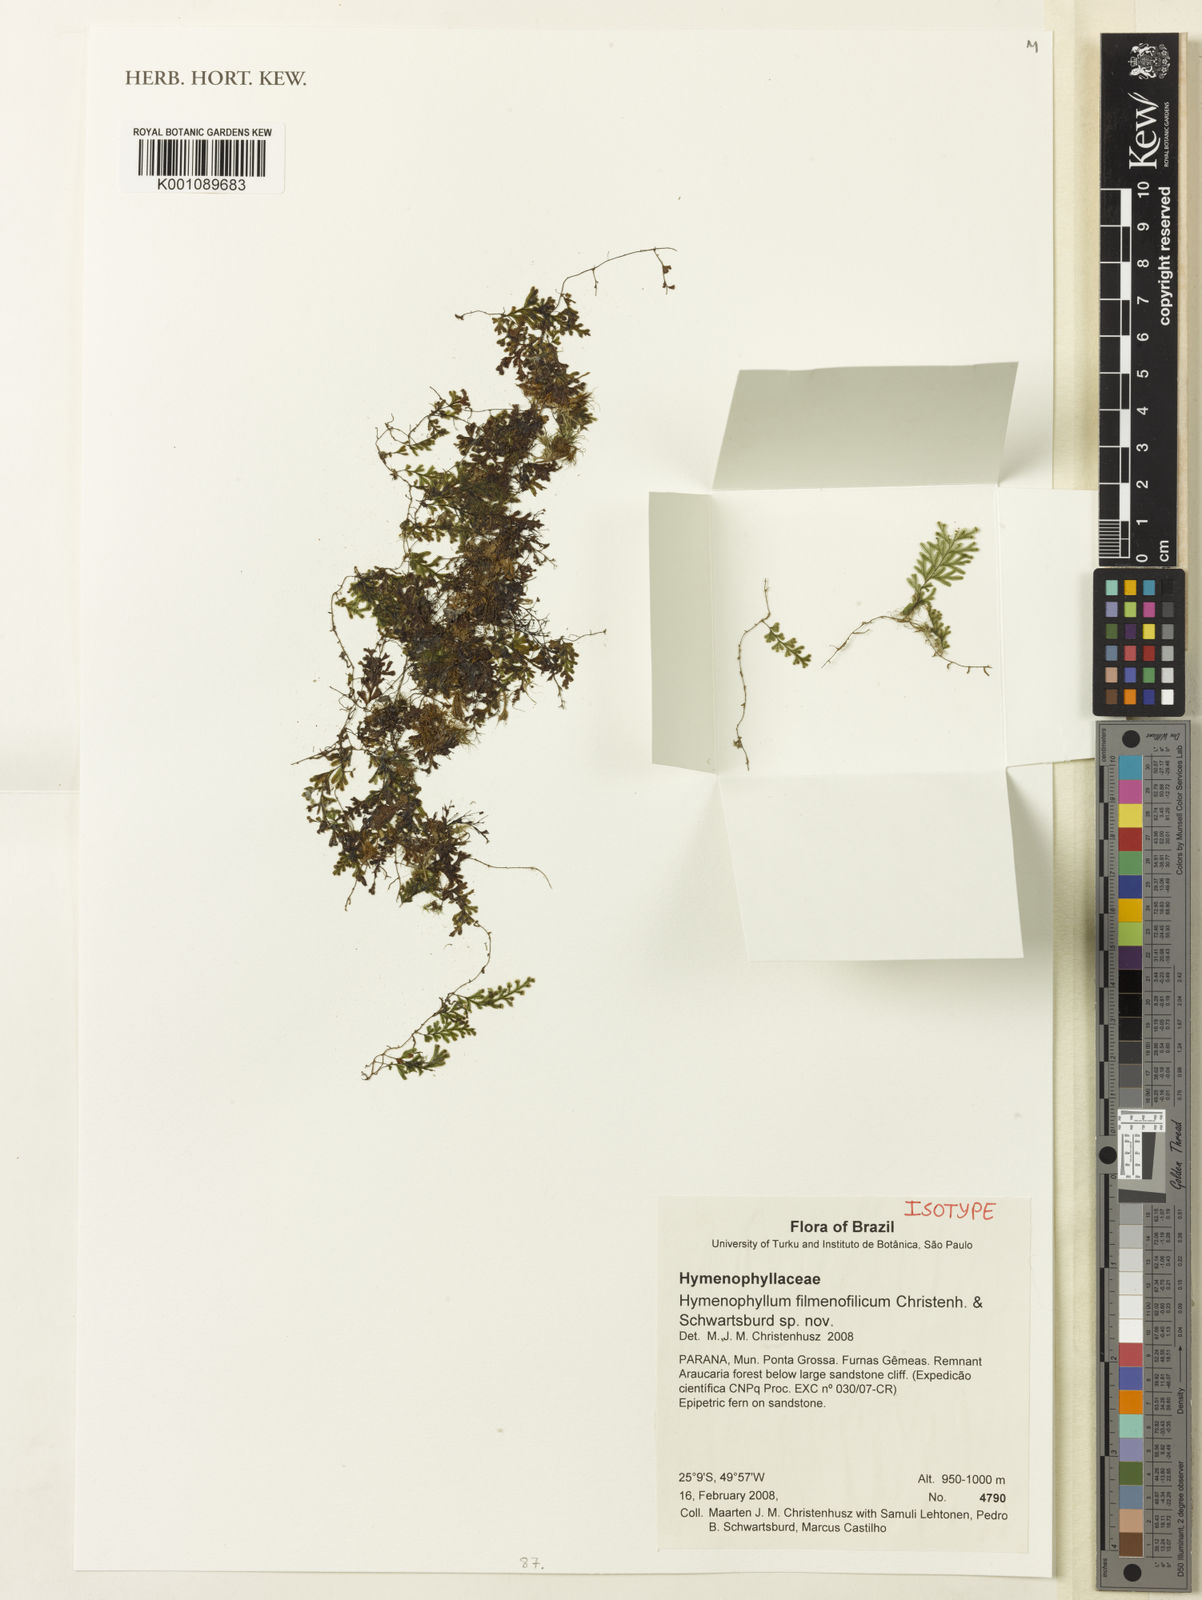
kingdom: Plantae
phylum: Tracheophyta
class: Polypodiopsida
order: Hymenophyllales
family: Hymenophyllaceae
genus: Hymenophyllum
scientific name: Hymenophyllum delicatulum
